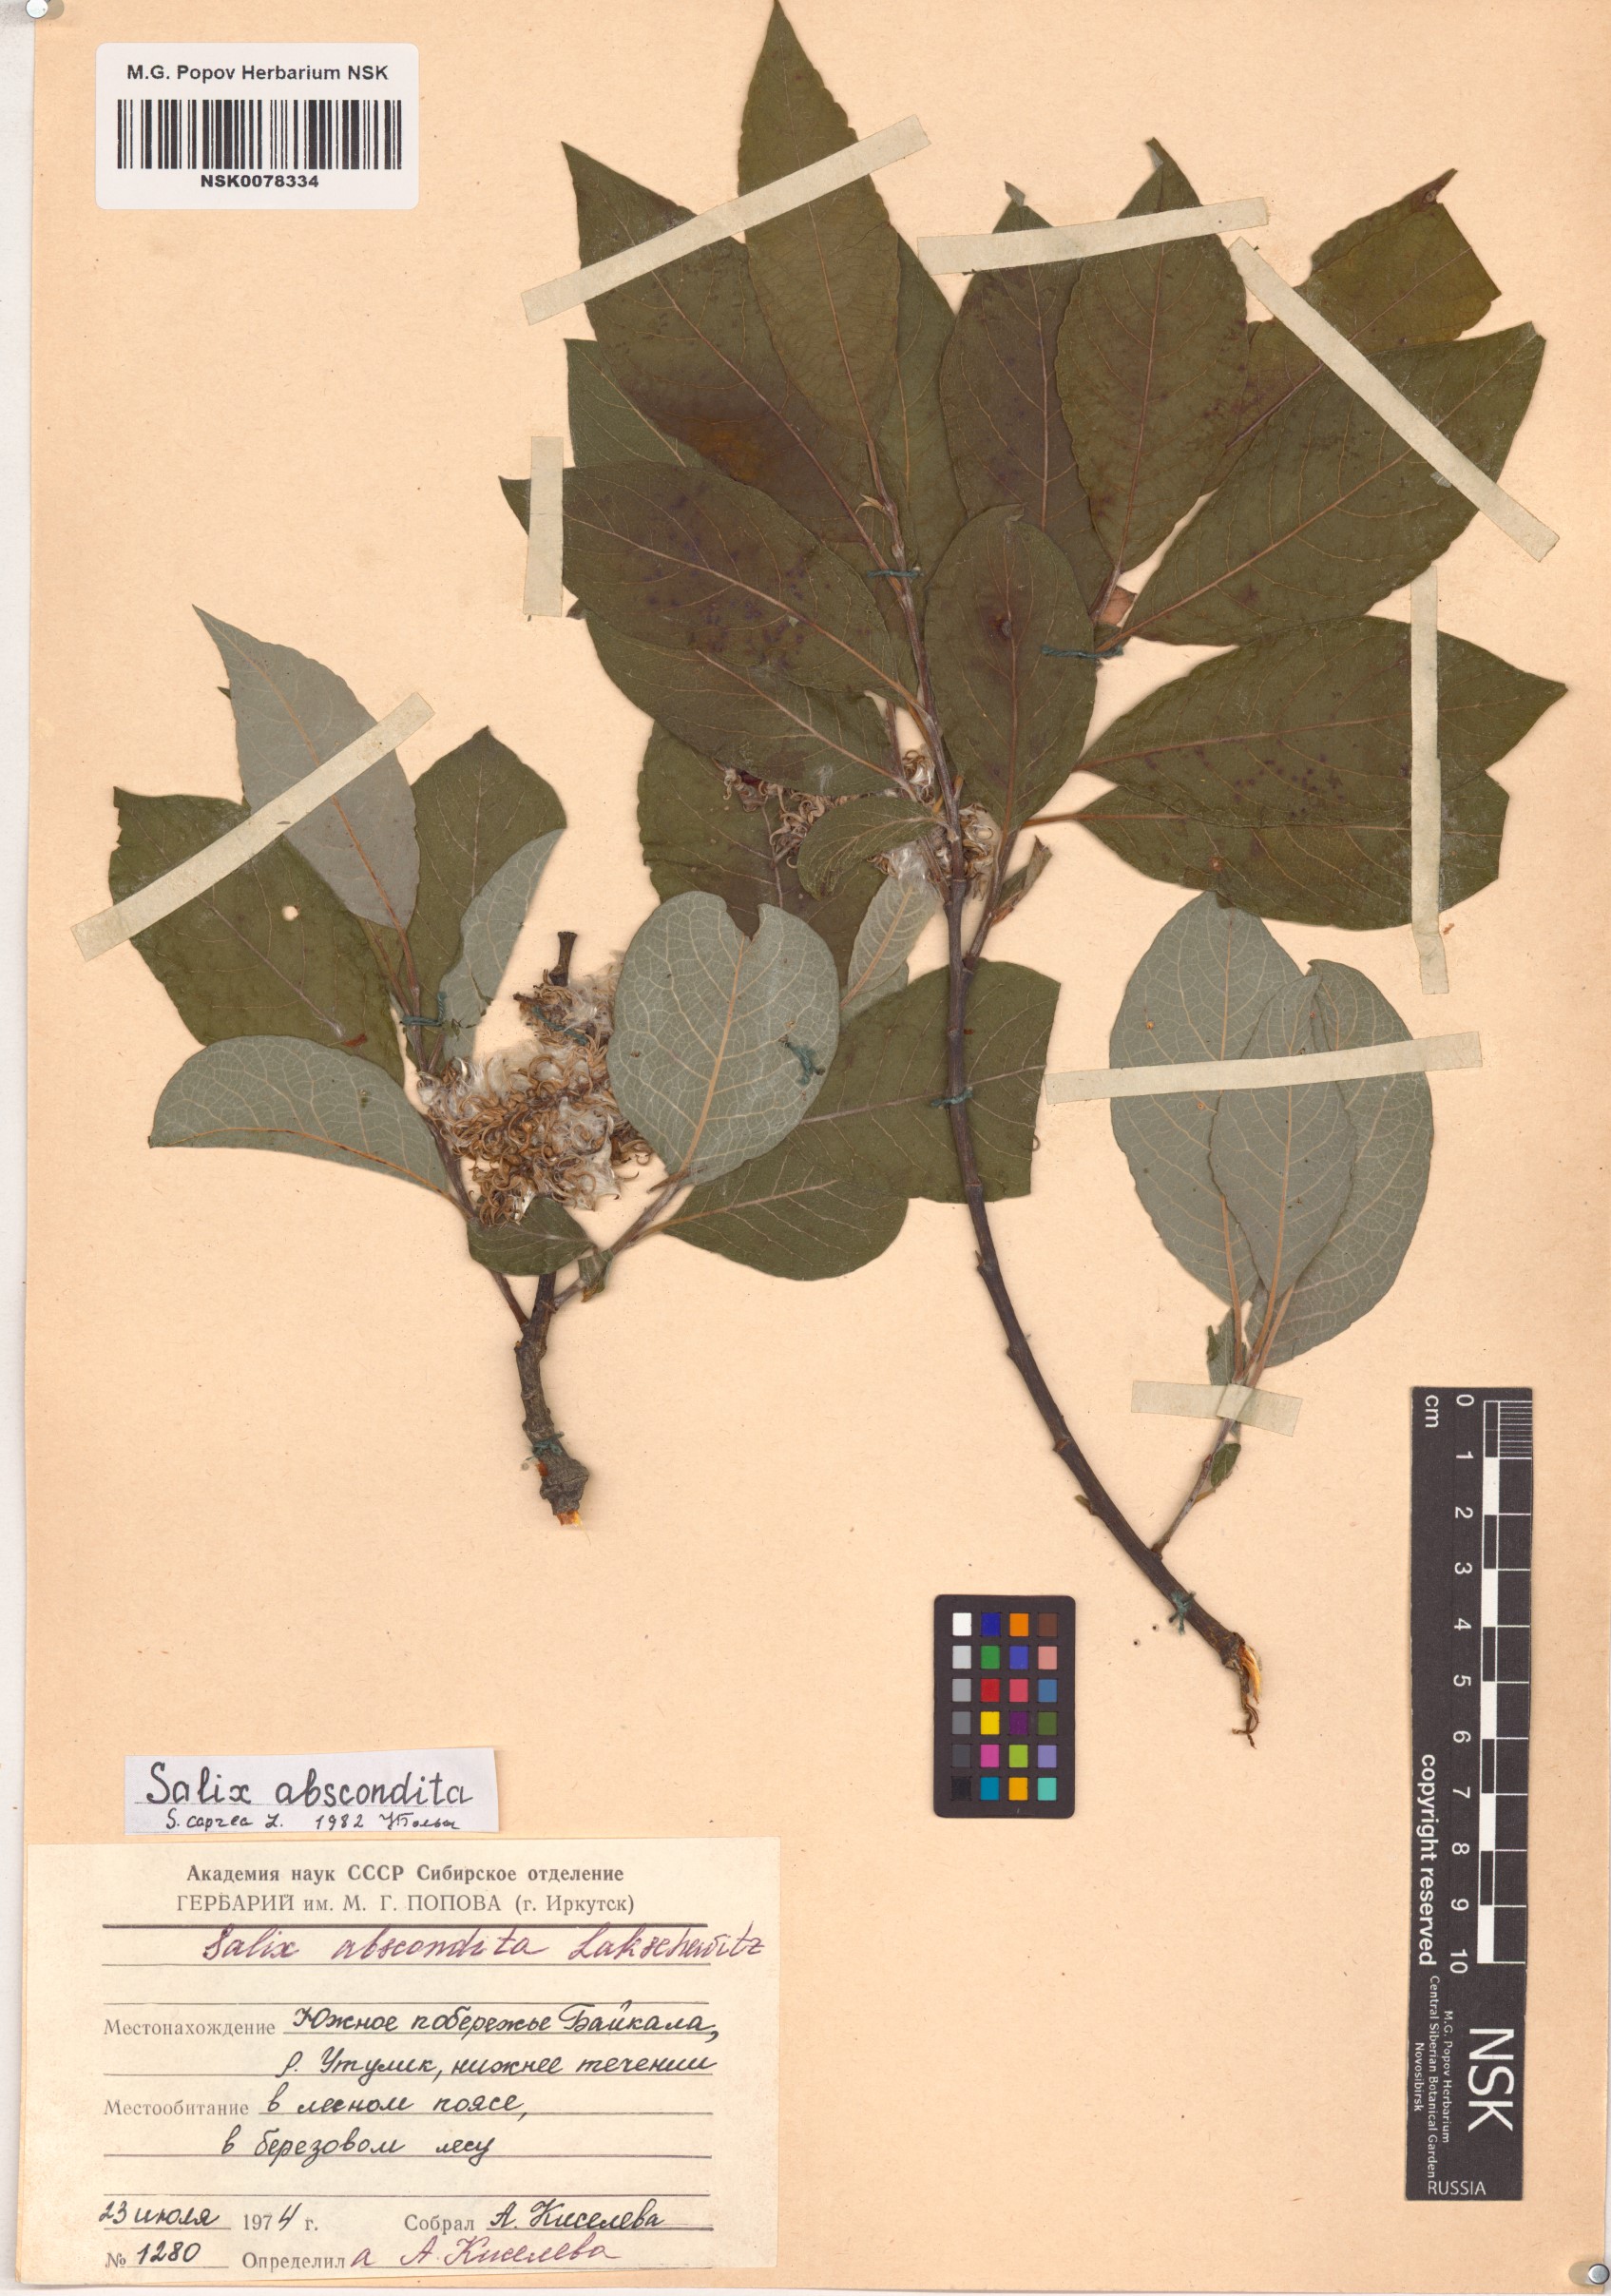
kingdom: Plantae
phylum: Tracheophyta
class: Magnoliopsida
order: Malpighiales
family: Salicaceae
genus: Salix
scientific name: Salix caprea
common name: Goat willow
